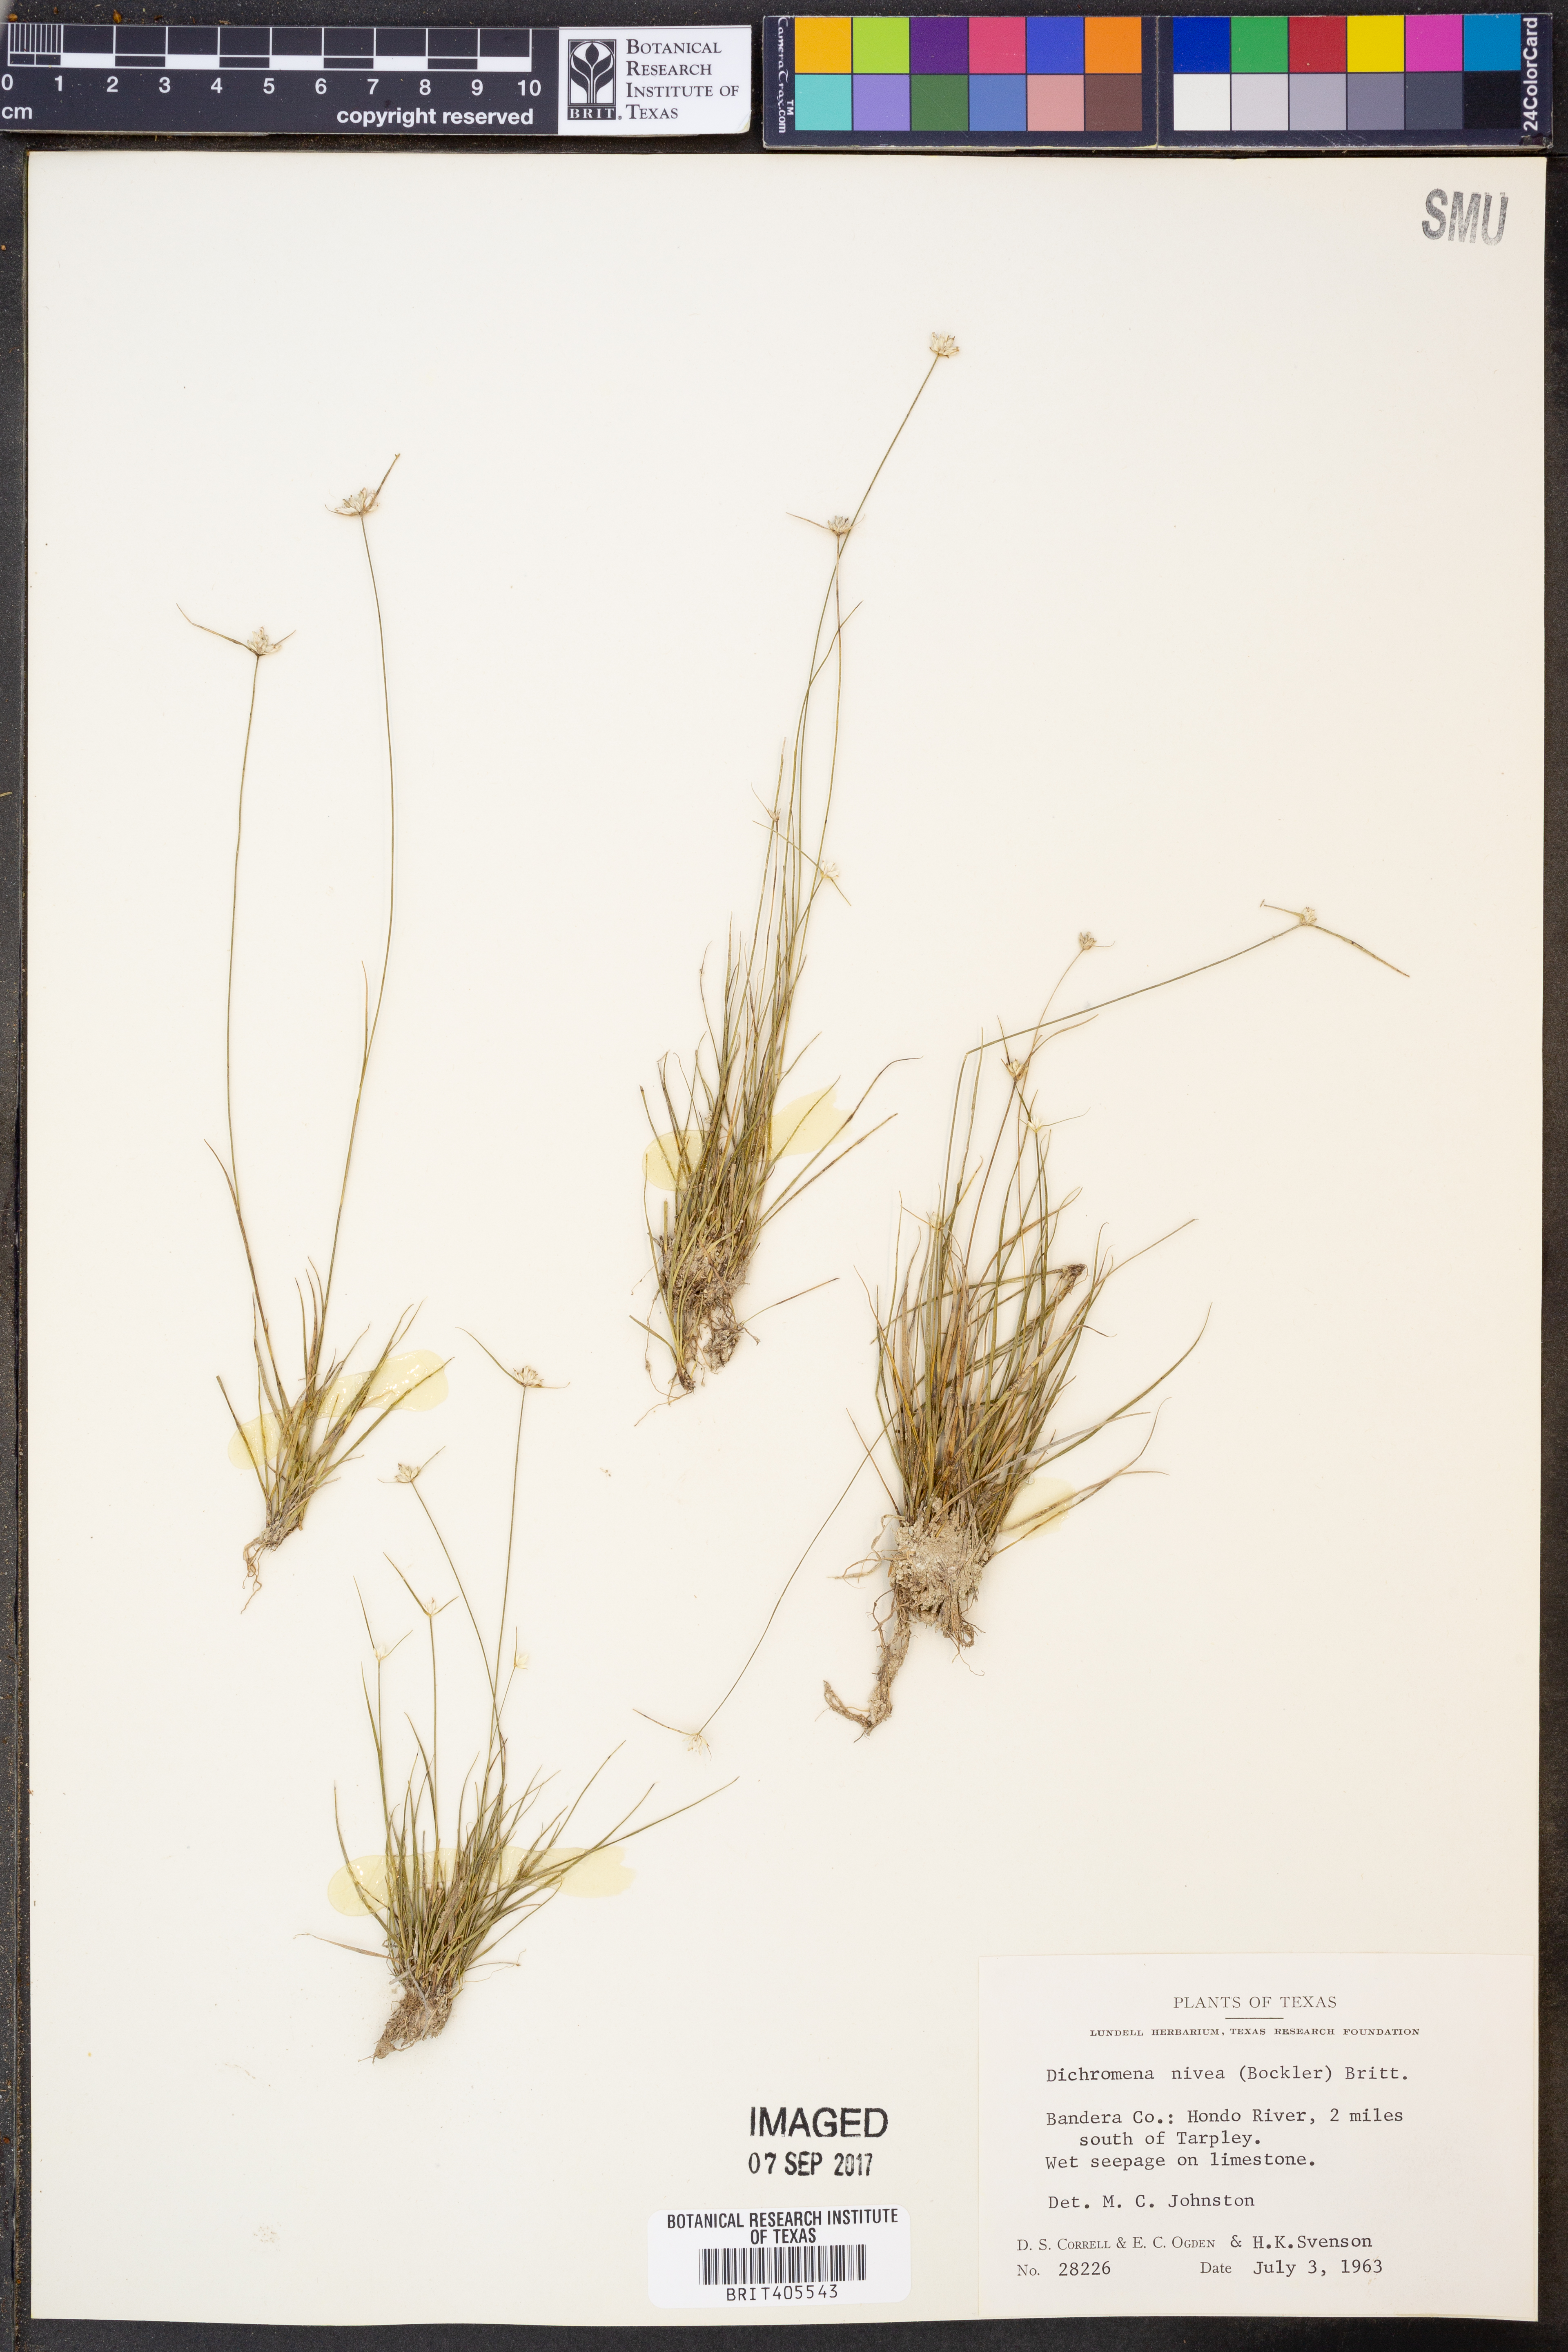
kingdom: Plantae
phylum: Tracheophyta
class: Liliopsida
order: Poales
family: Cyperaceae
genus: Rhynchospora
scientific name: Rhynchospora nivea
